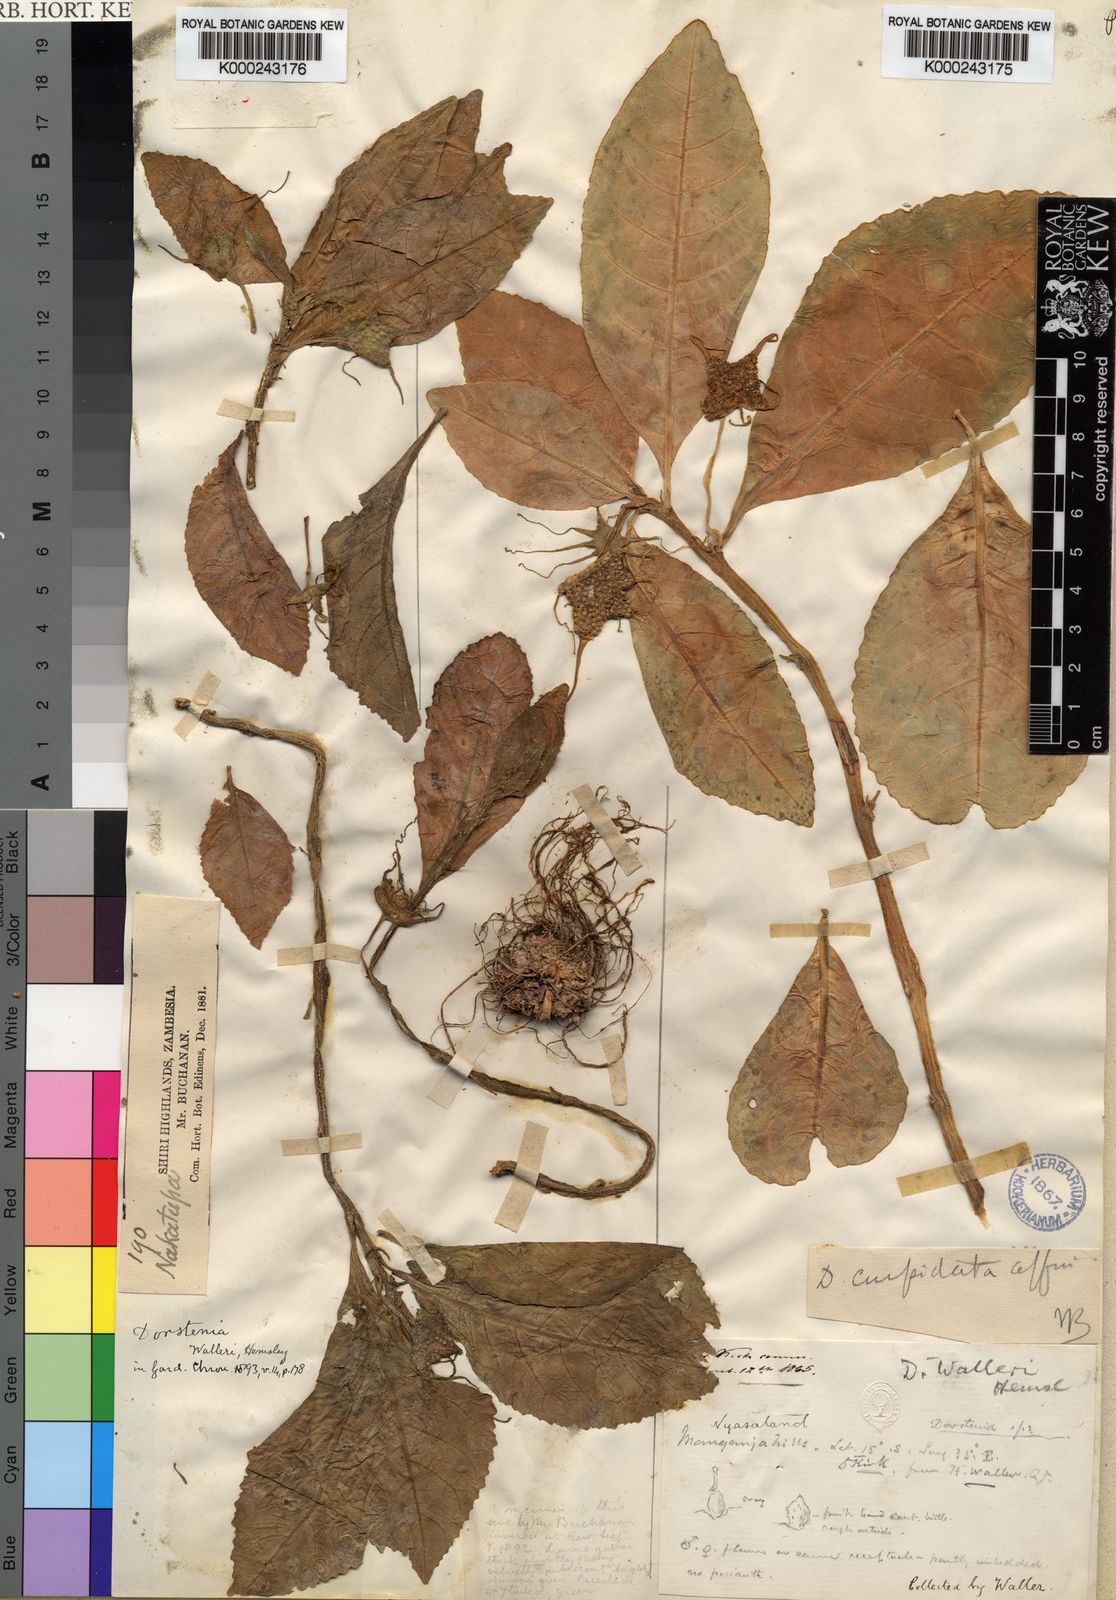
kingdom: Plantae
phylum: Tracheophyta
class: Magnoliopsida
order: Rosales
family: Moraceae
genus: Dorstenia
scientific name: Dorstenia
